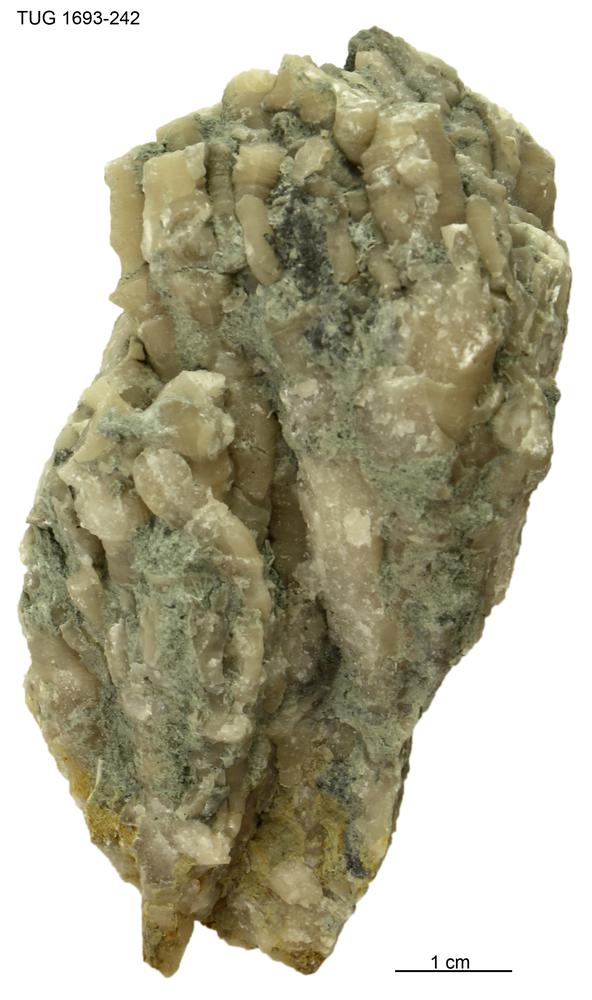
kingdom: Animalia
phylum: Cnidaria
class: Anthozoa
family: Entelophyllidae
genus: Petrozium
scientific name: Petrozium
